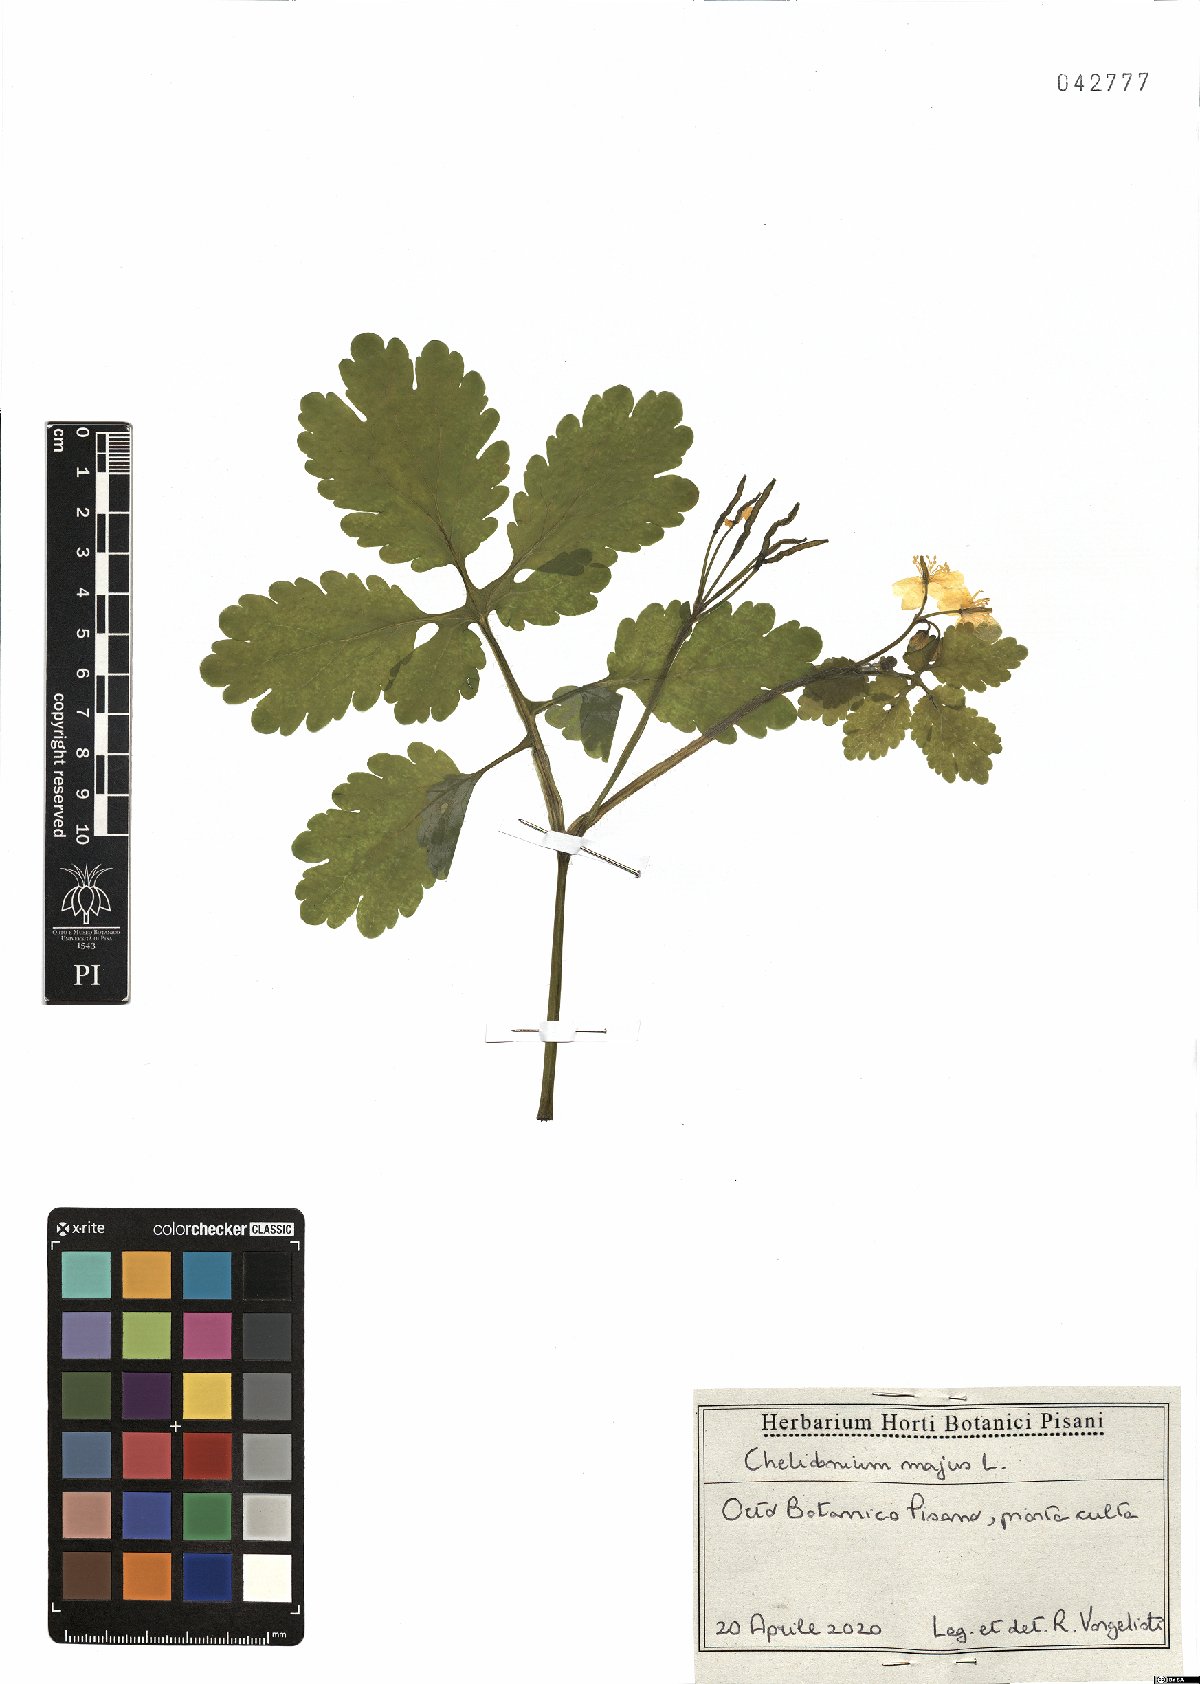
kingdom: Plantae
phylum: Tracheophyta
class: Magnoliopsida
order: Ranunculales
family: Papaveraceae
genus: Chelidonium
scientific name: Chelidonium majus
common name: Greater celandine
